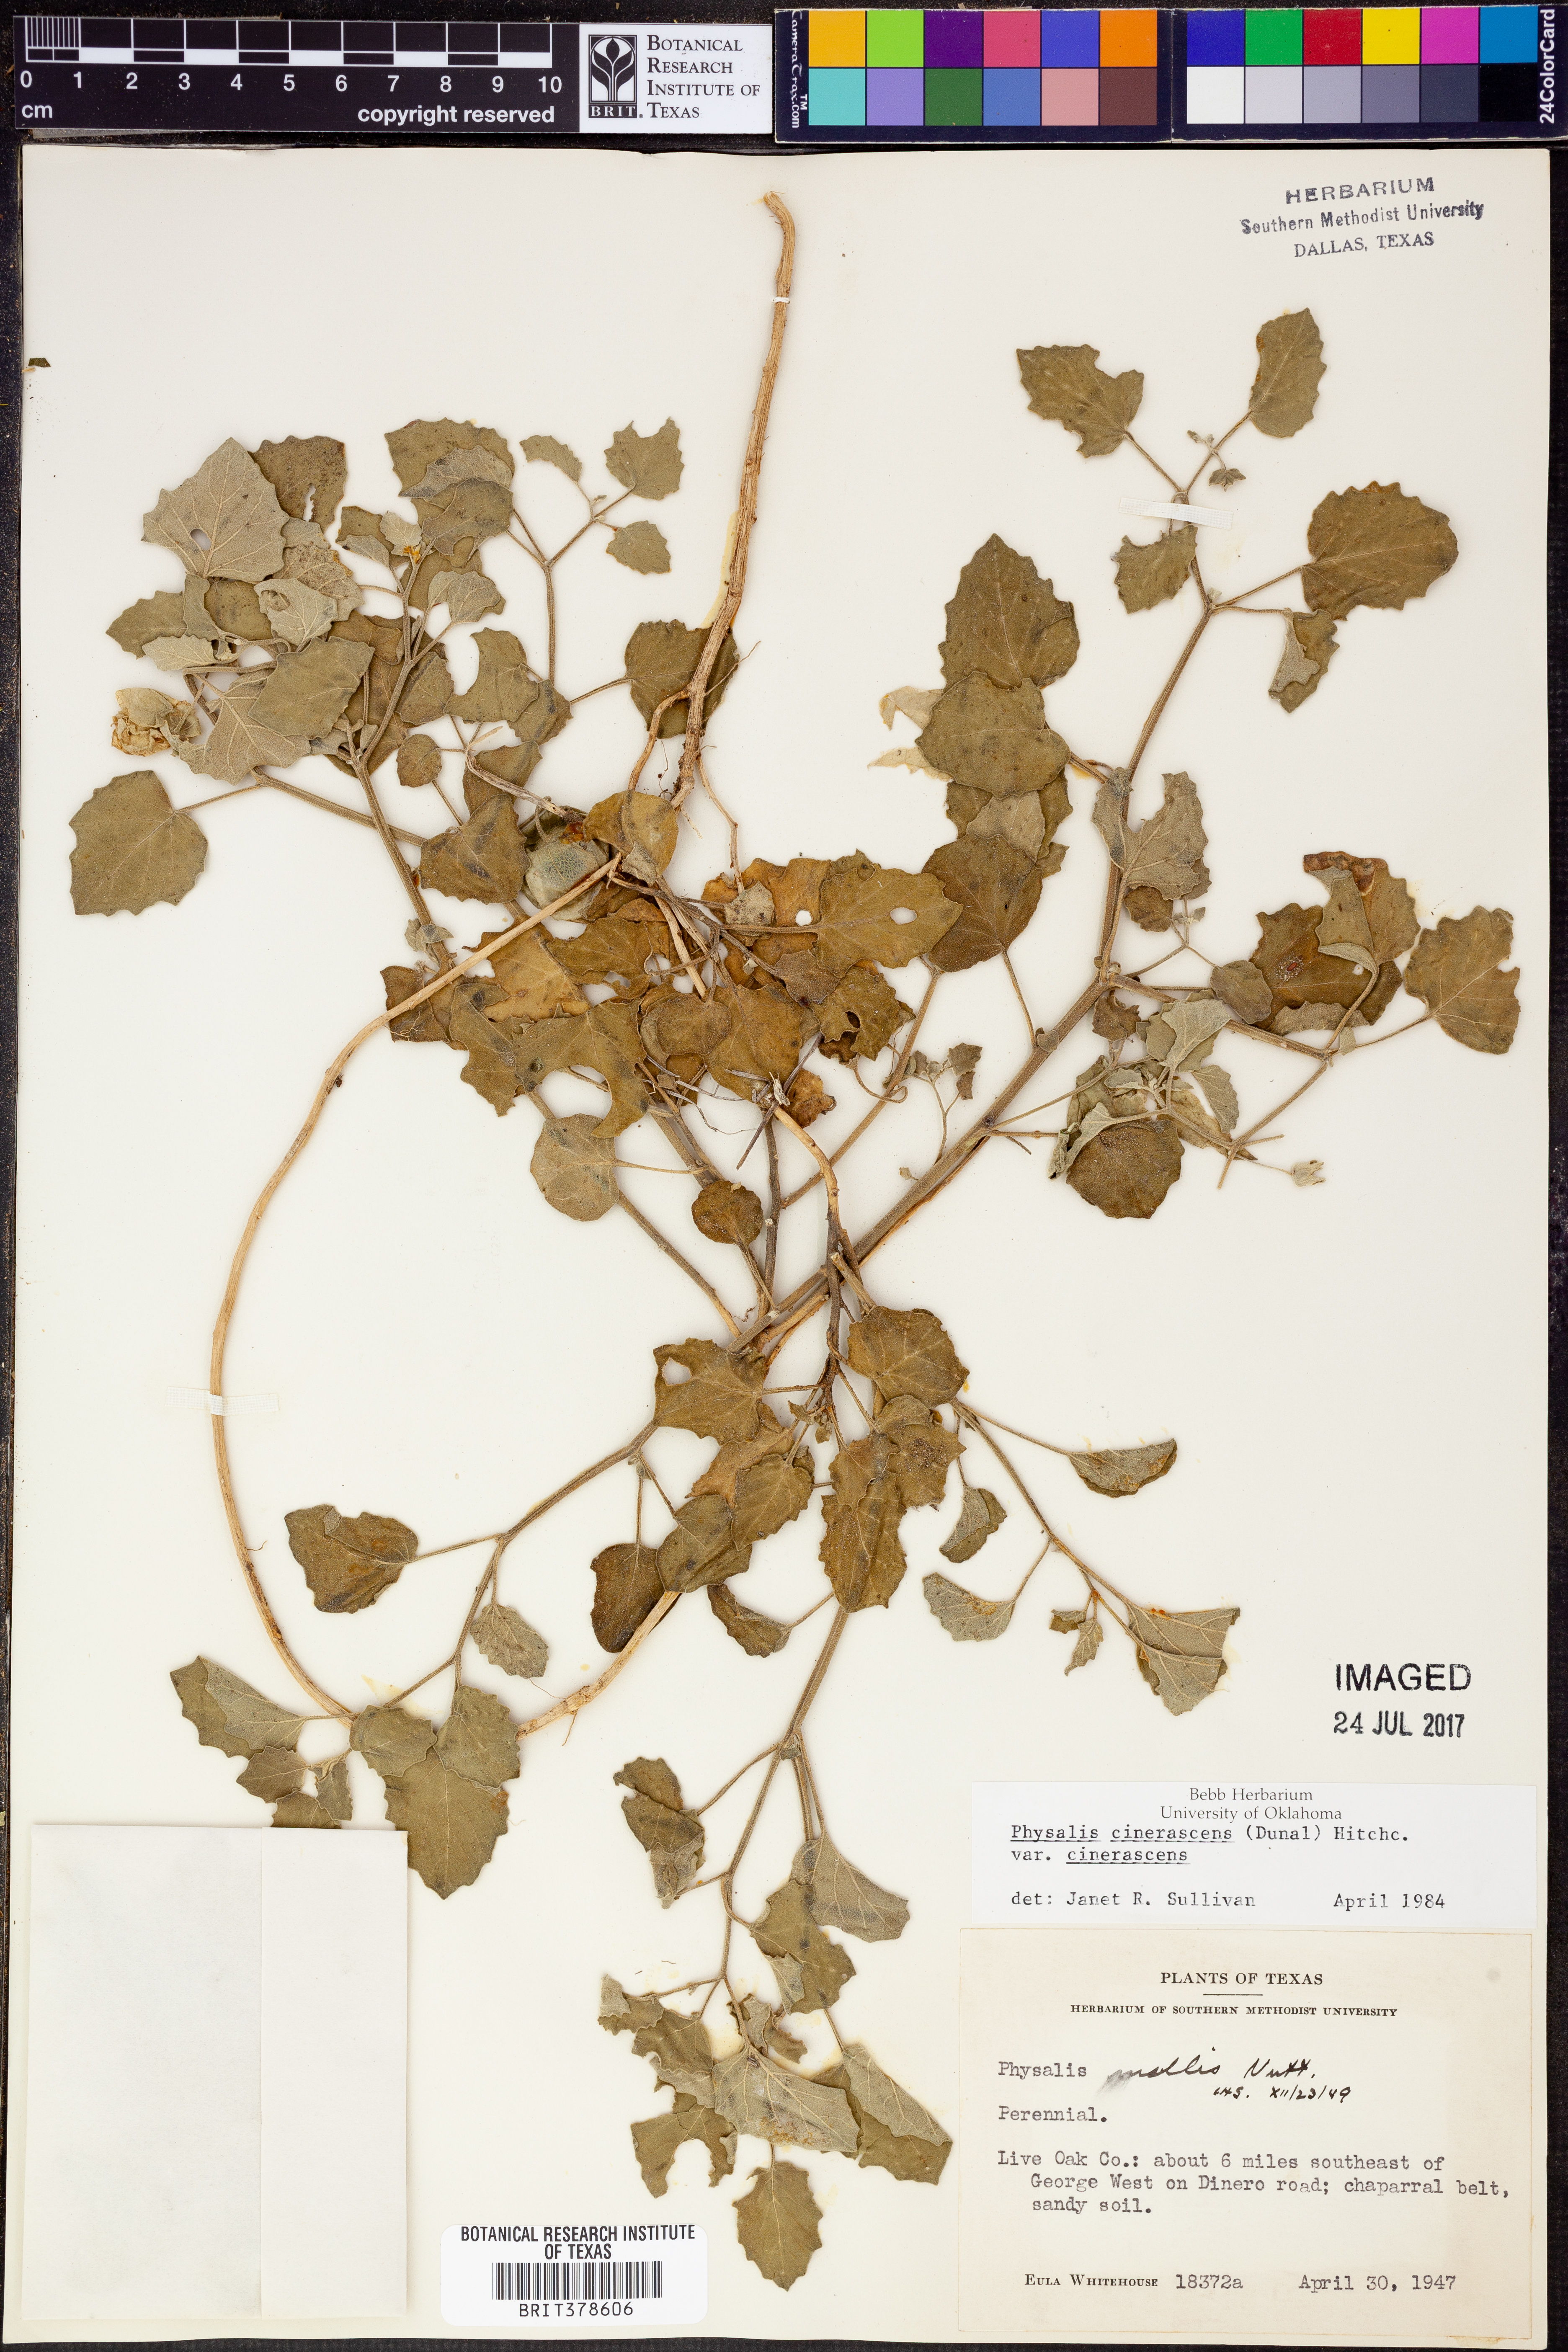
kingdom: Plantae
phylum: Tracheophyta
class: Magnoliopsida
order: Solanales
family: Solanaceae
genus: Physalis
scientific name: Physalis cinerascens
